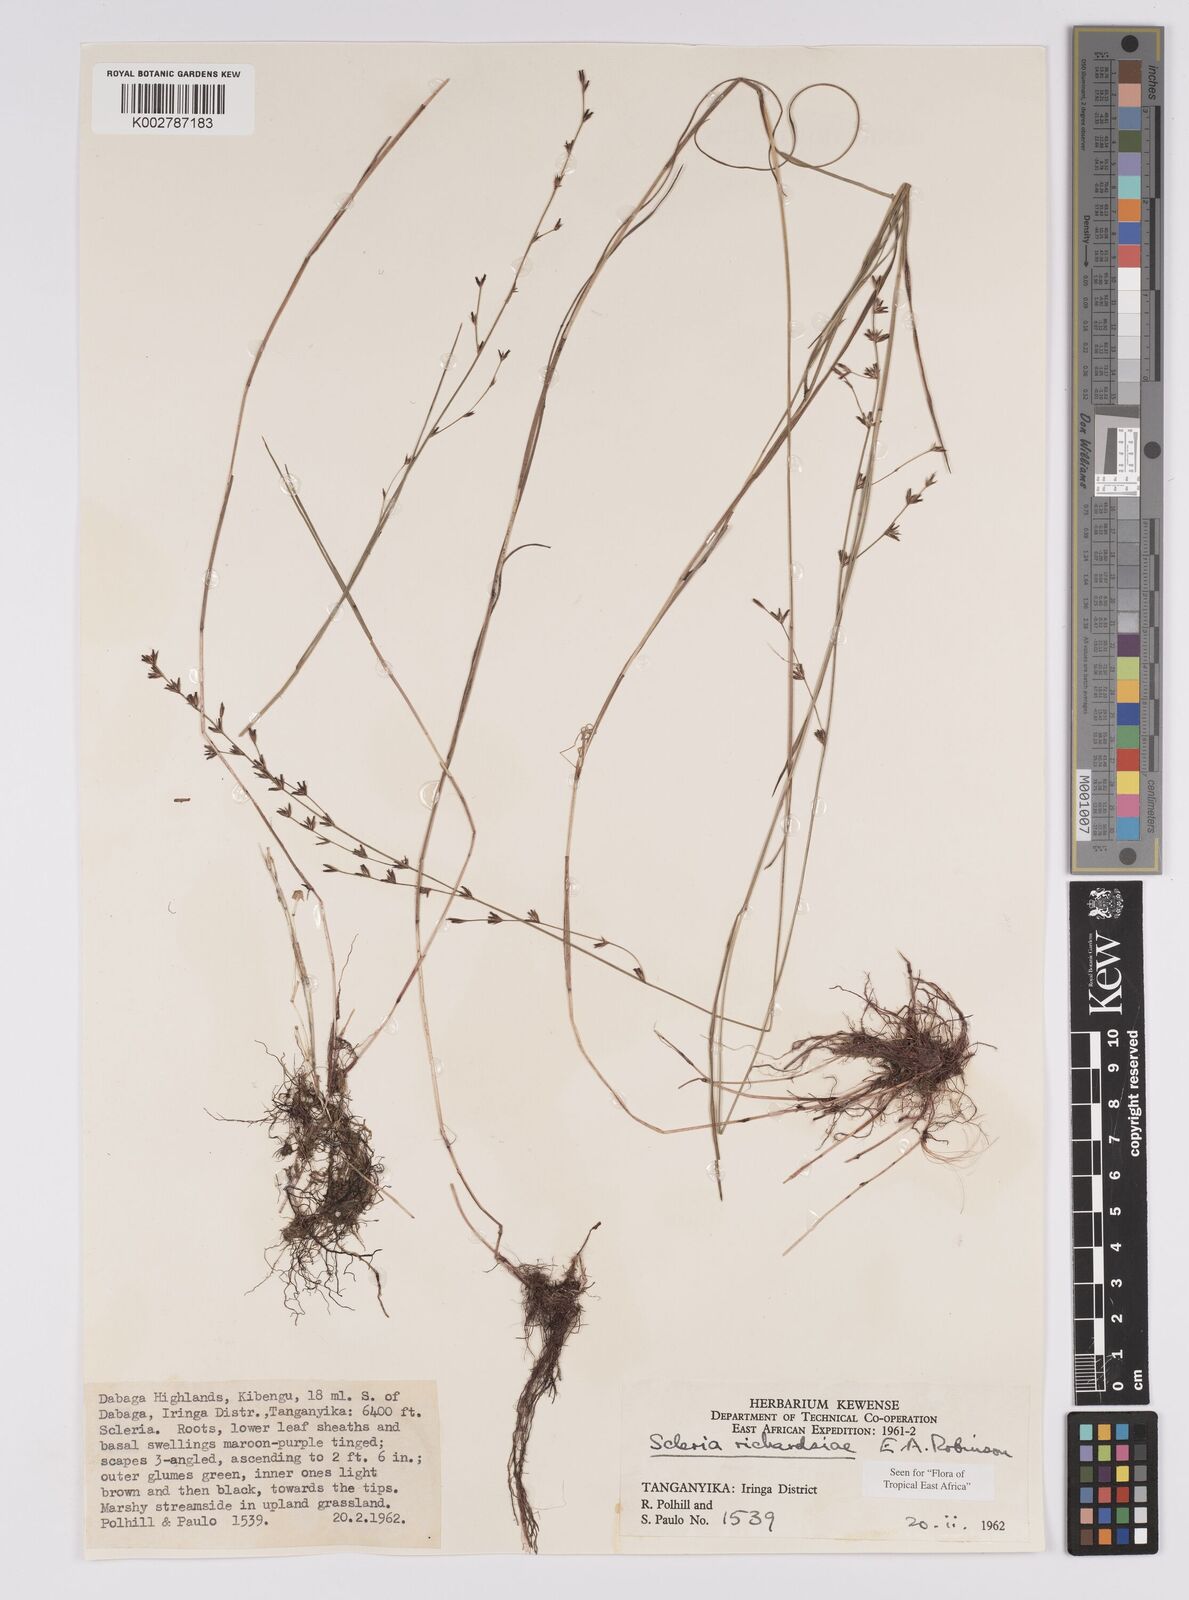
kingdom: Plantae
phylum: Tracheophyta
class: Liliopsida
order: Poales
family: Cyperaceae
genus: Scleria
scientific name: Scleria richardsiae
